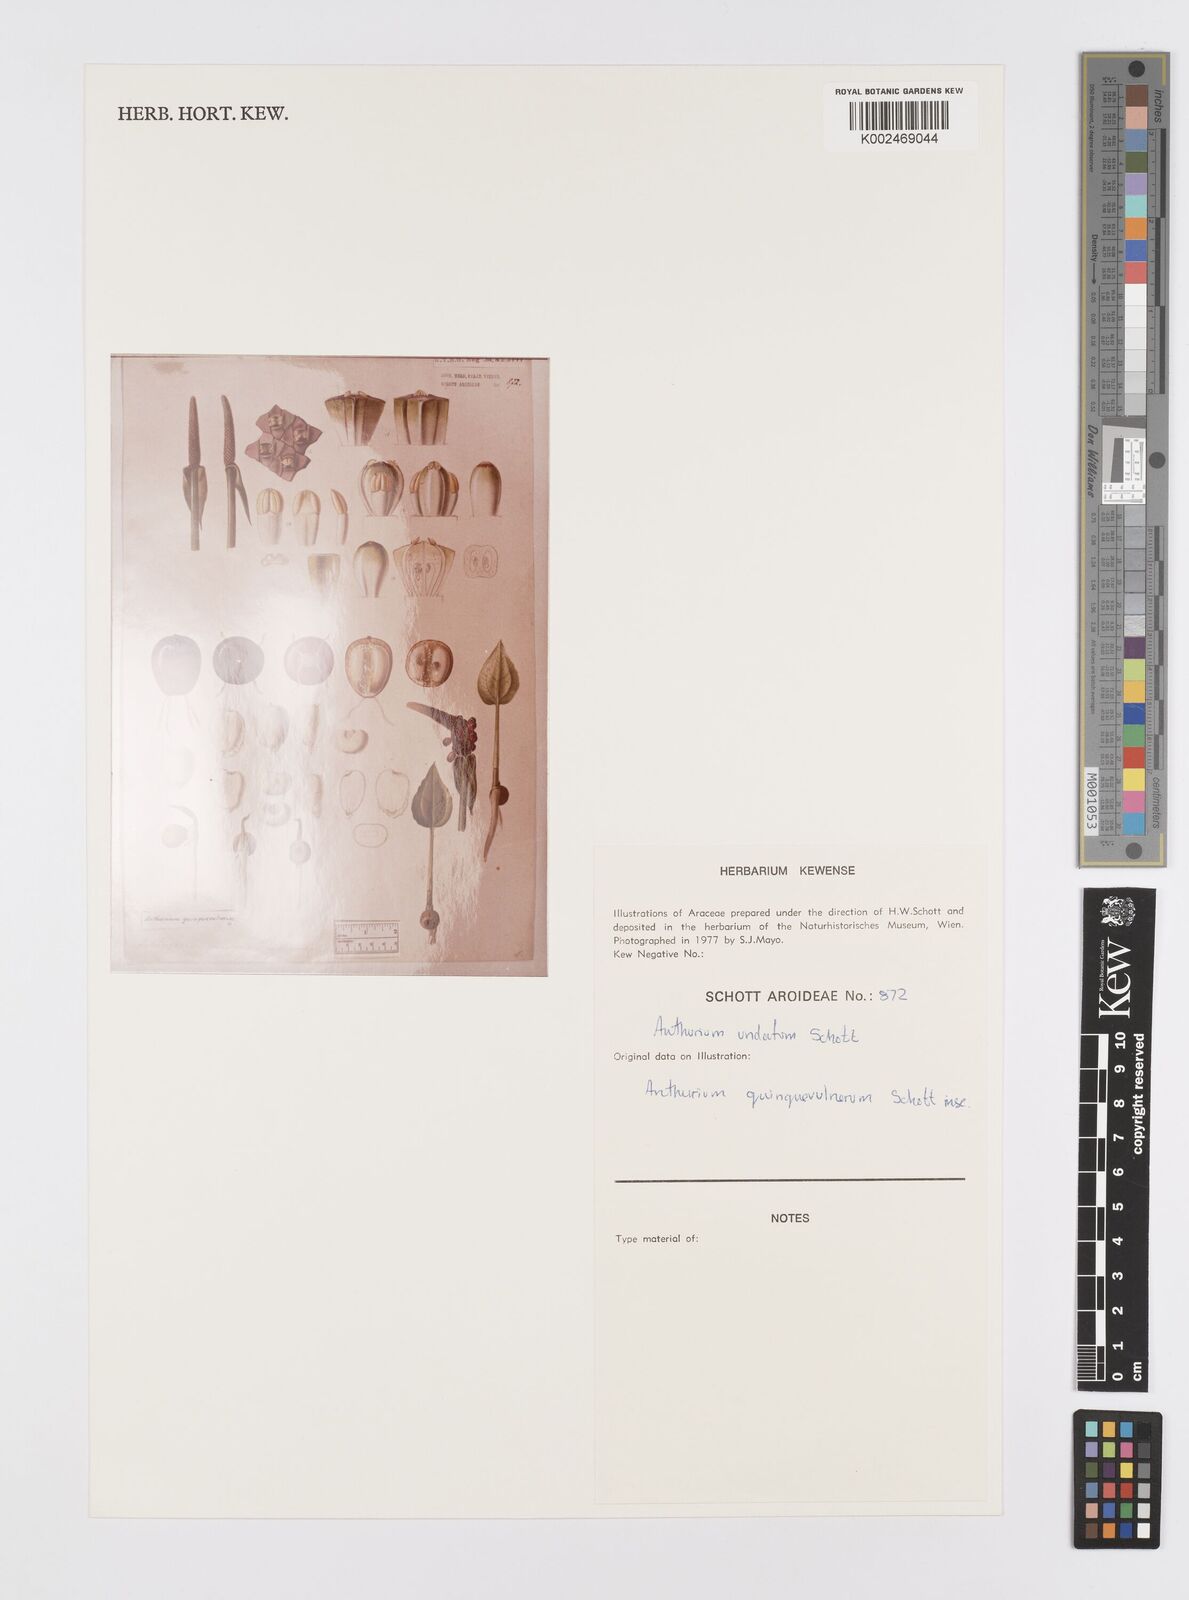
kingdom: Plantae
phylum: Tracheophyta
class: Liliopsida
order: Alismatales
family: Araceae
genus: Anthurium
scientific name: Anthurium pentaphyllum
